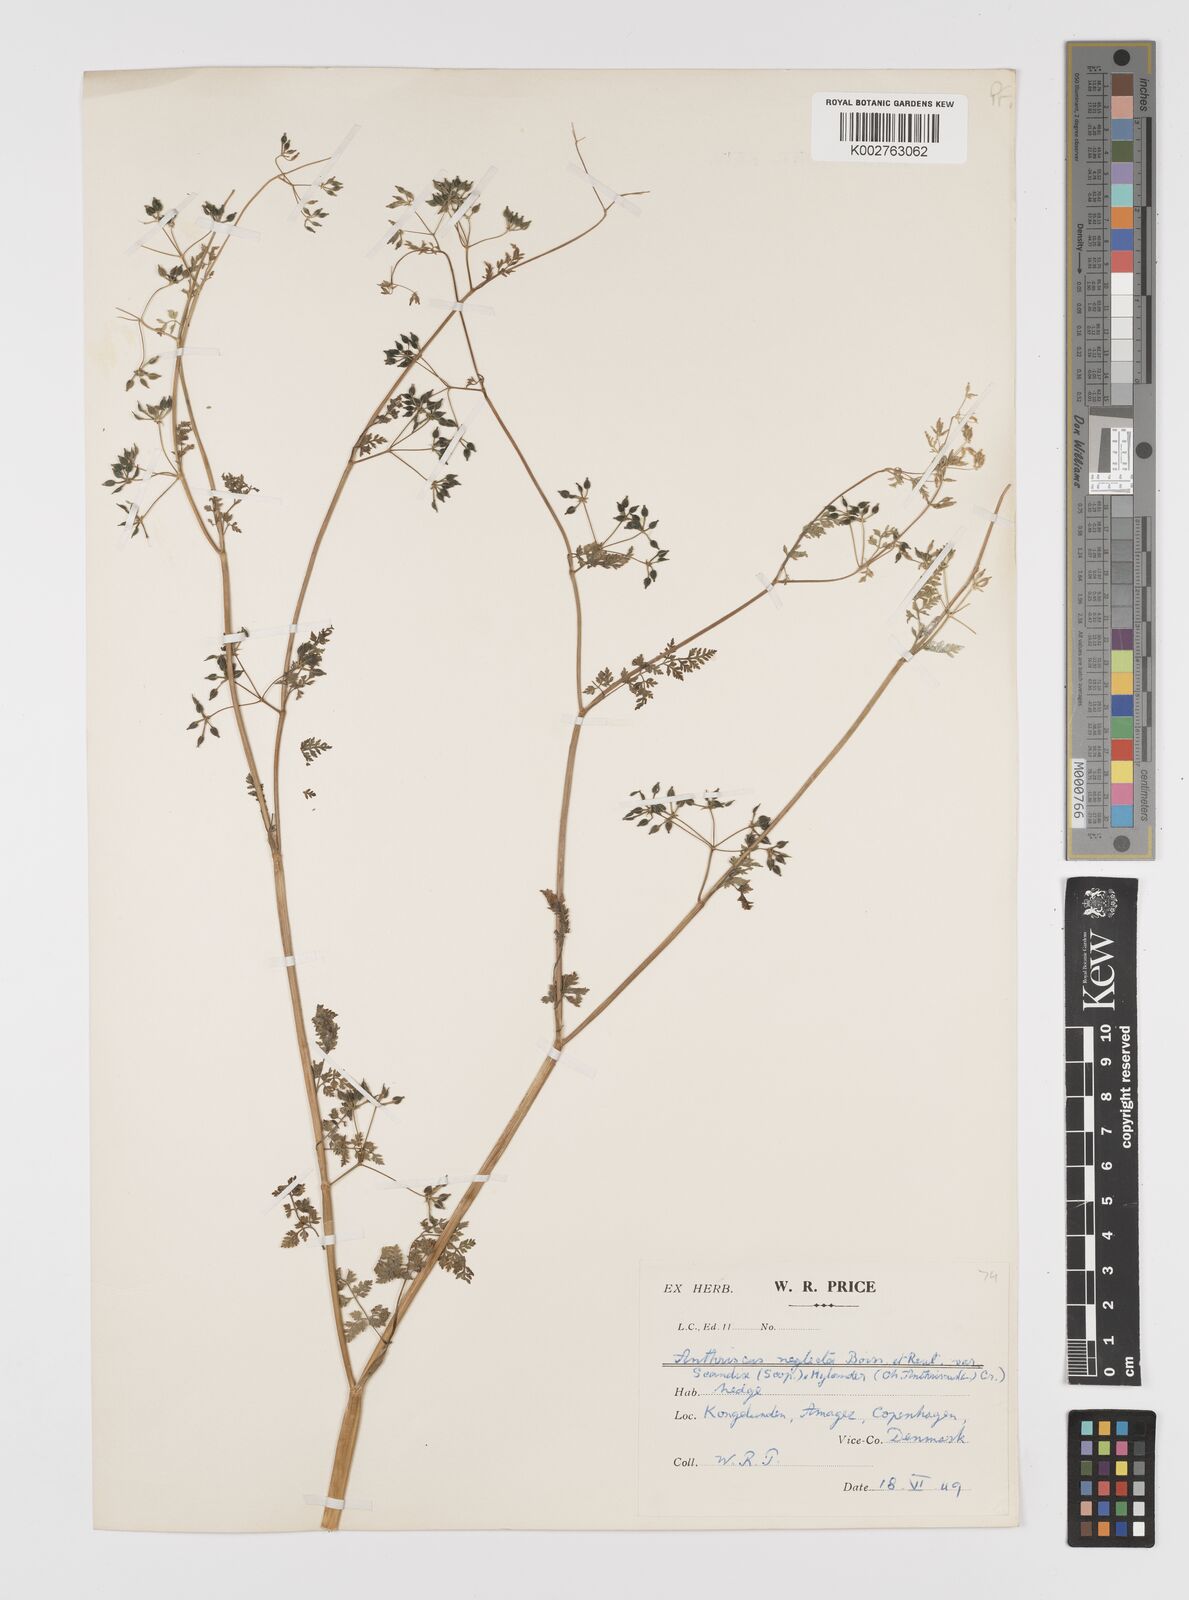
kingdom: Plantae
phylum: Tracheophyta
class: Magnoliopsida
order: Apiales
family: Apiaceae
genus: Anthriscus
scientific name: Anthriscus caucalis
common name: Bur chervil
